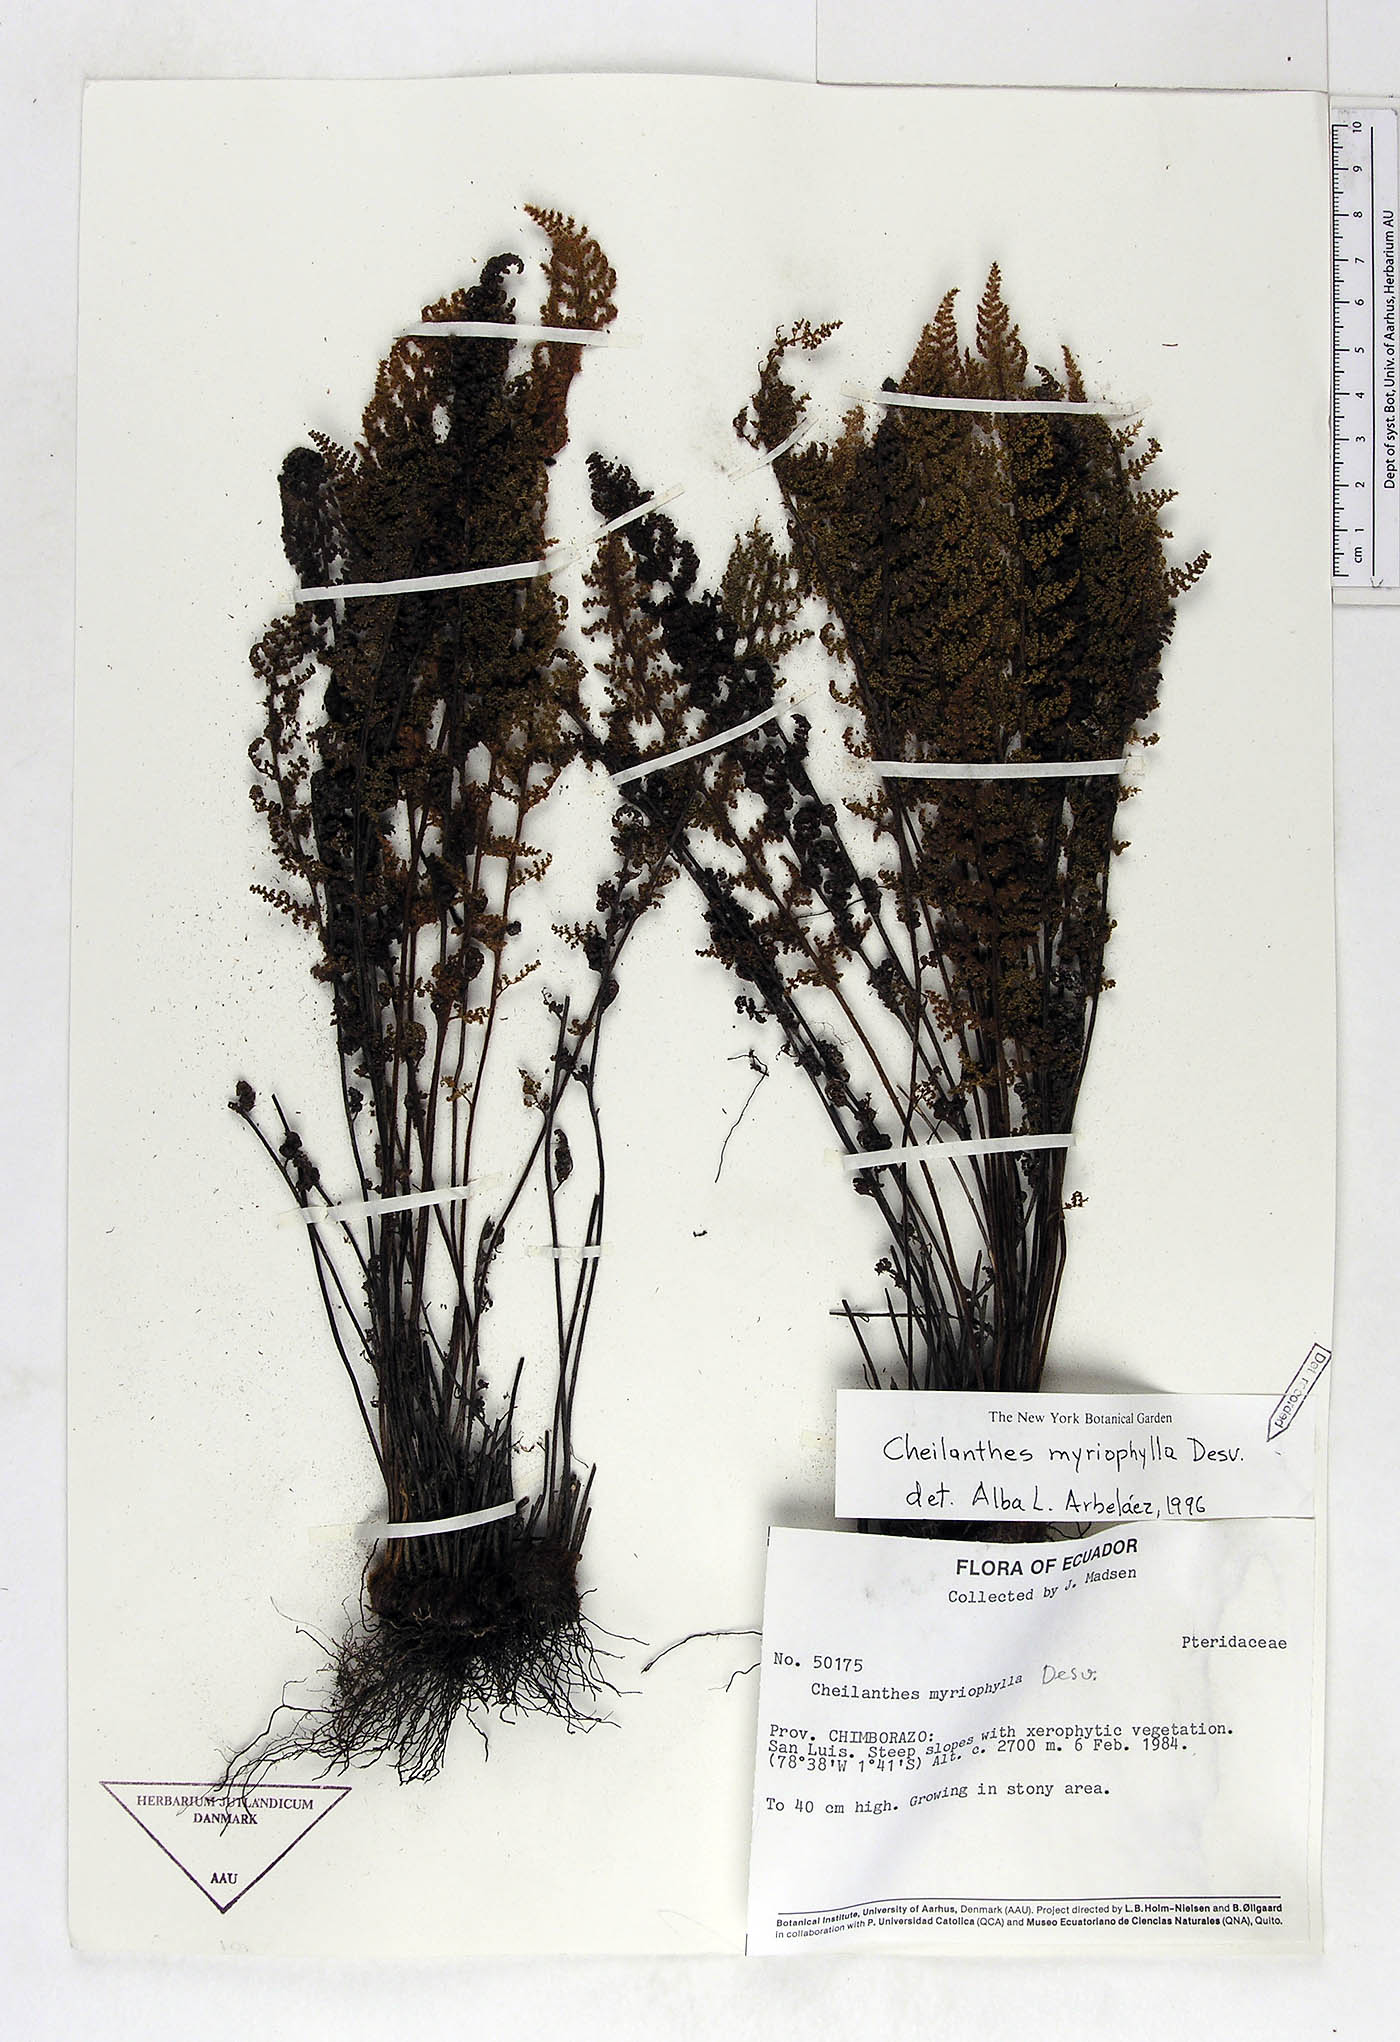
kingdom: Plantae
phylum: Tracheophyta
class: Polypodiopsida
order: Polypodiales
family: Pteridaceae
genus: Myriopteris
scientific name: Myriopteris myriophylla
